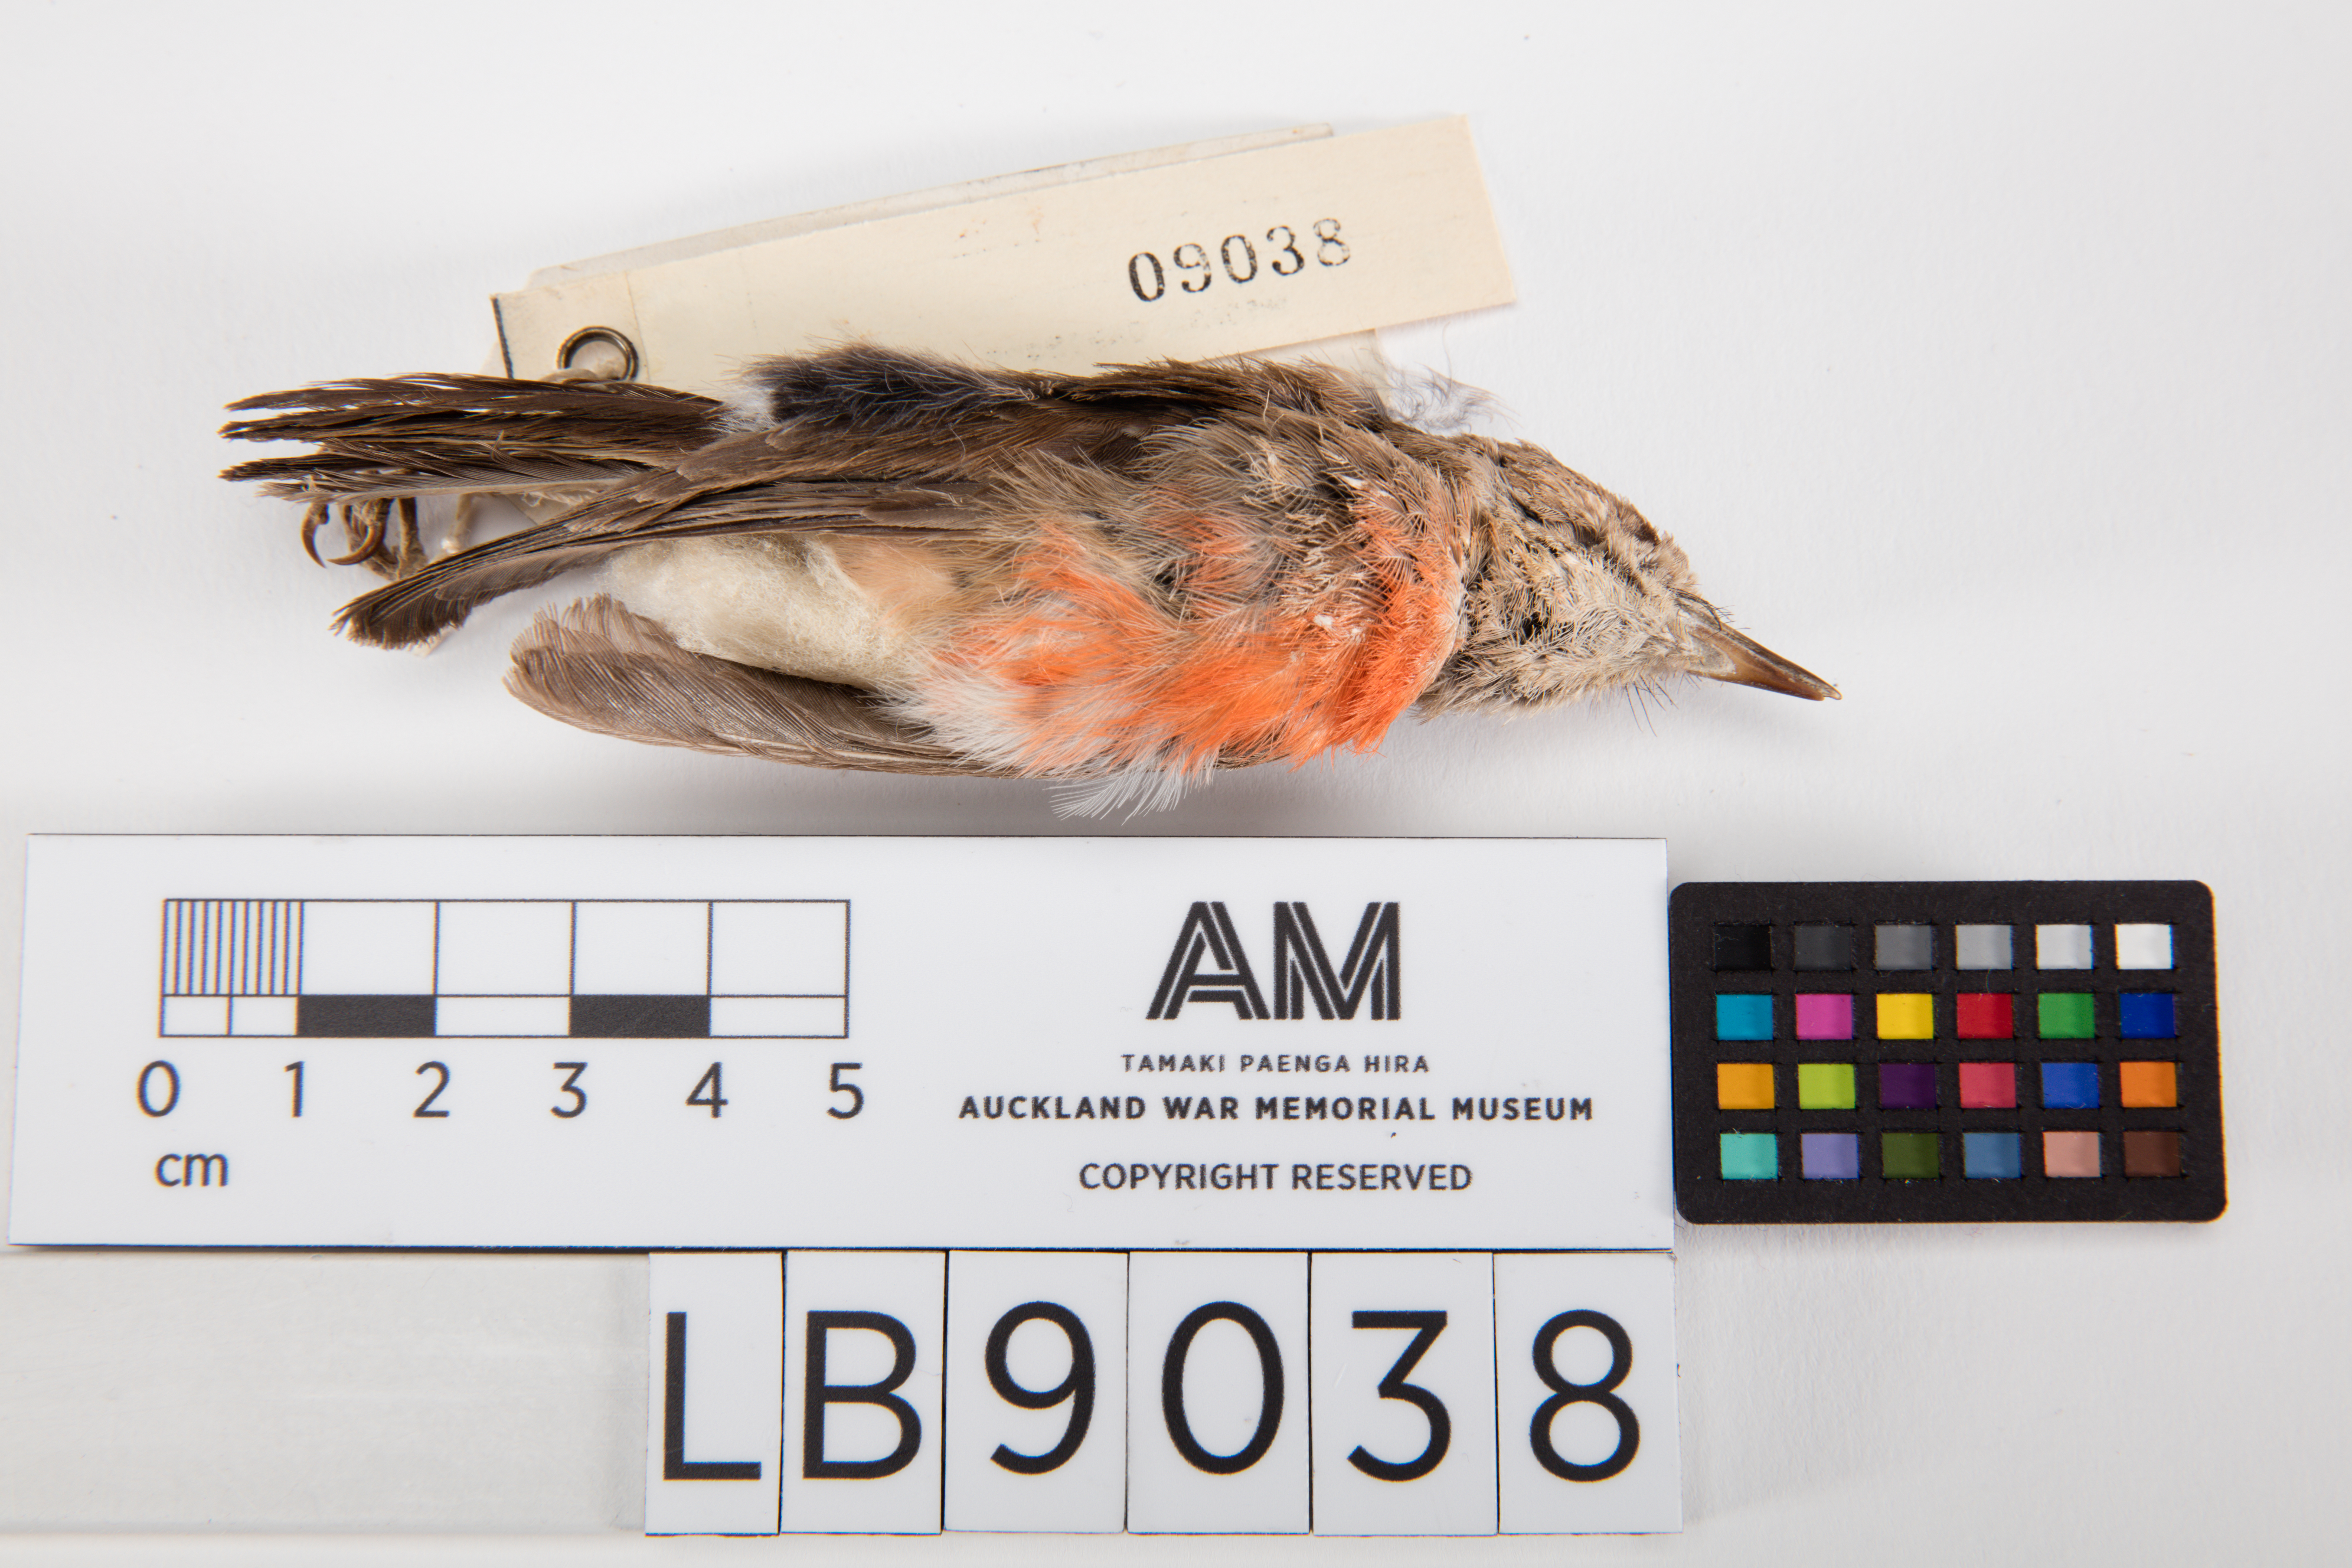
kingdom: Animalia
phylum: Chordata
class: Aves
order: Passeriformes
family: Petroicidae
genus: Petroica
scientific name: Petroica multicolor
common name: Pacific robin
